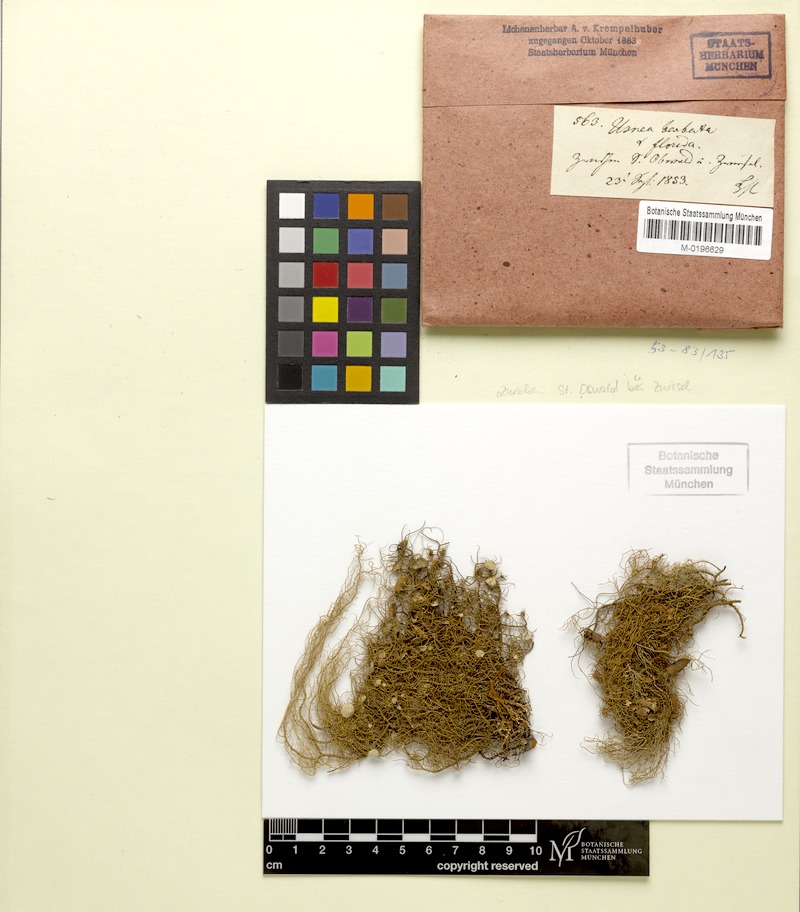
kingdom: Fungi
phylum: Ascomycota
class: Lecanoromycetes
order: Lecanorales
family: Parmeliaceae
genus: Usnea
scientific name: Usnea florida
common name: Witches' whiskers lichen
